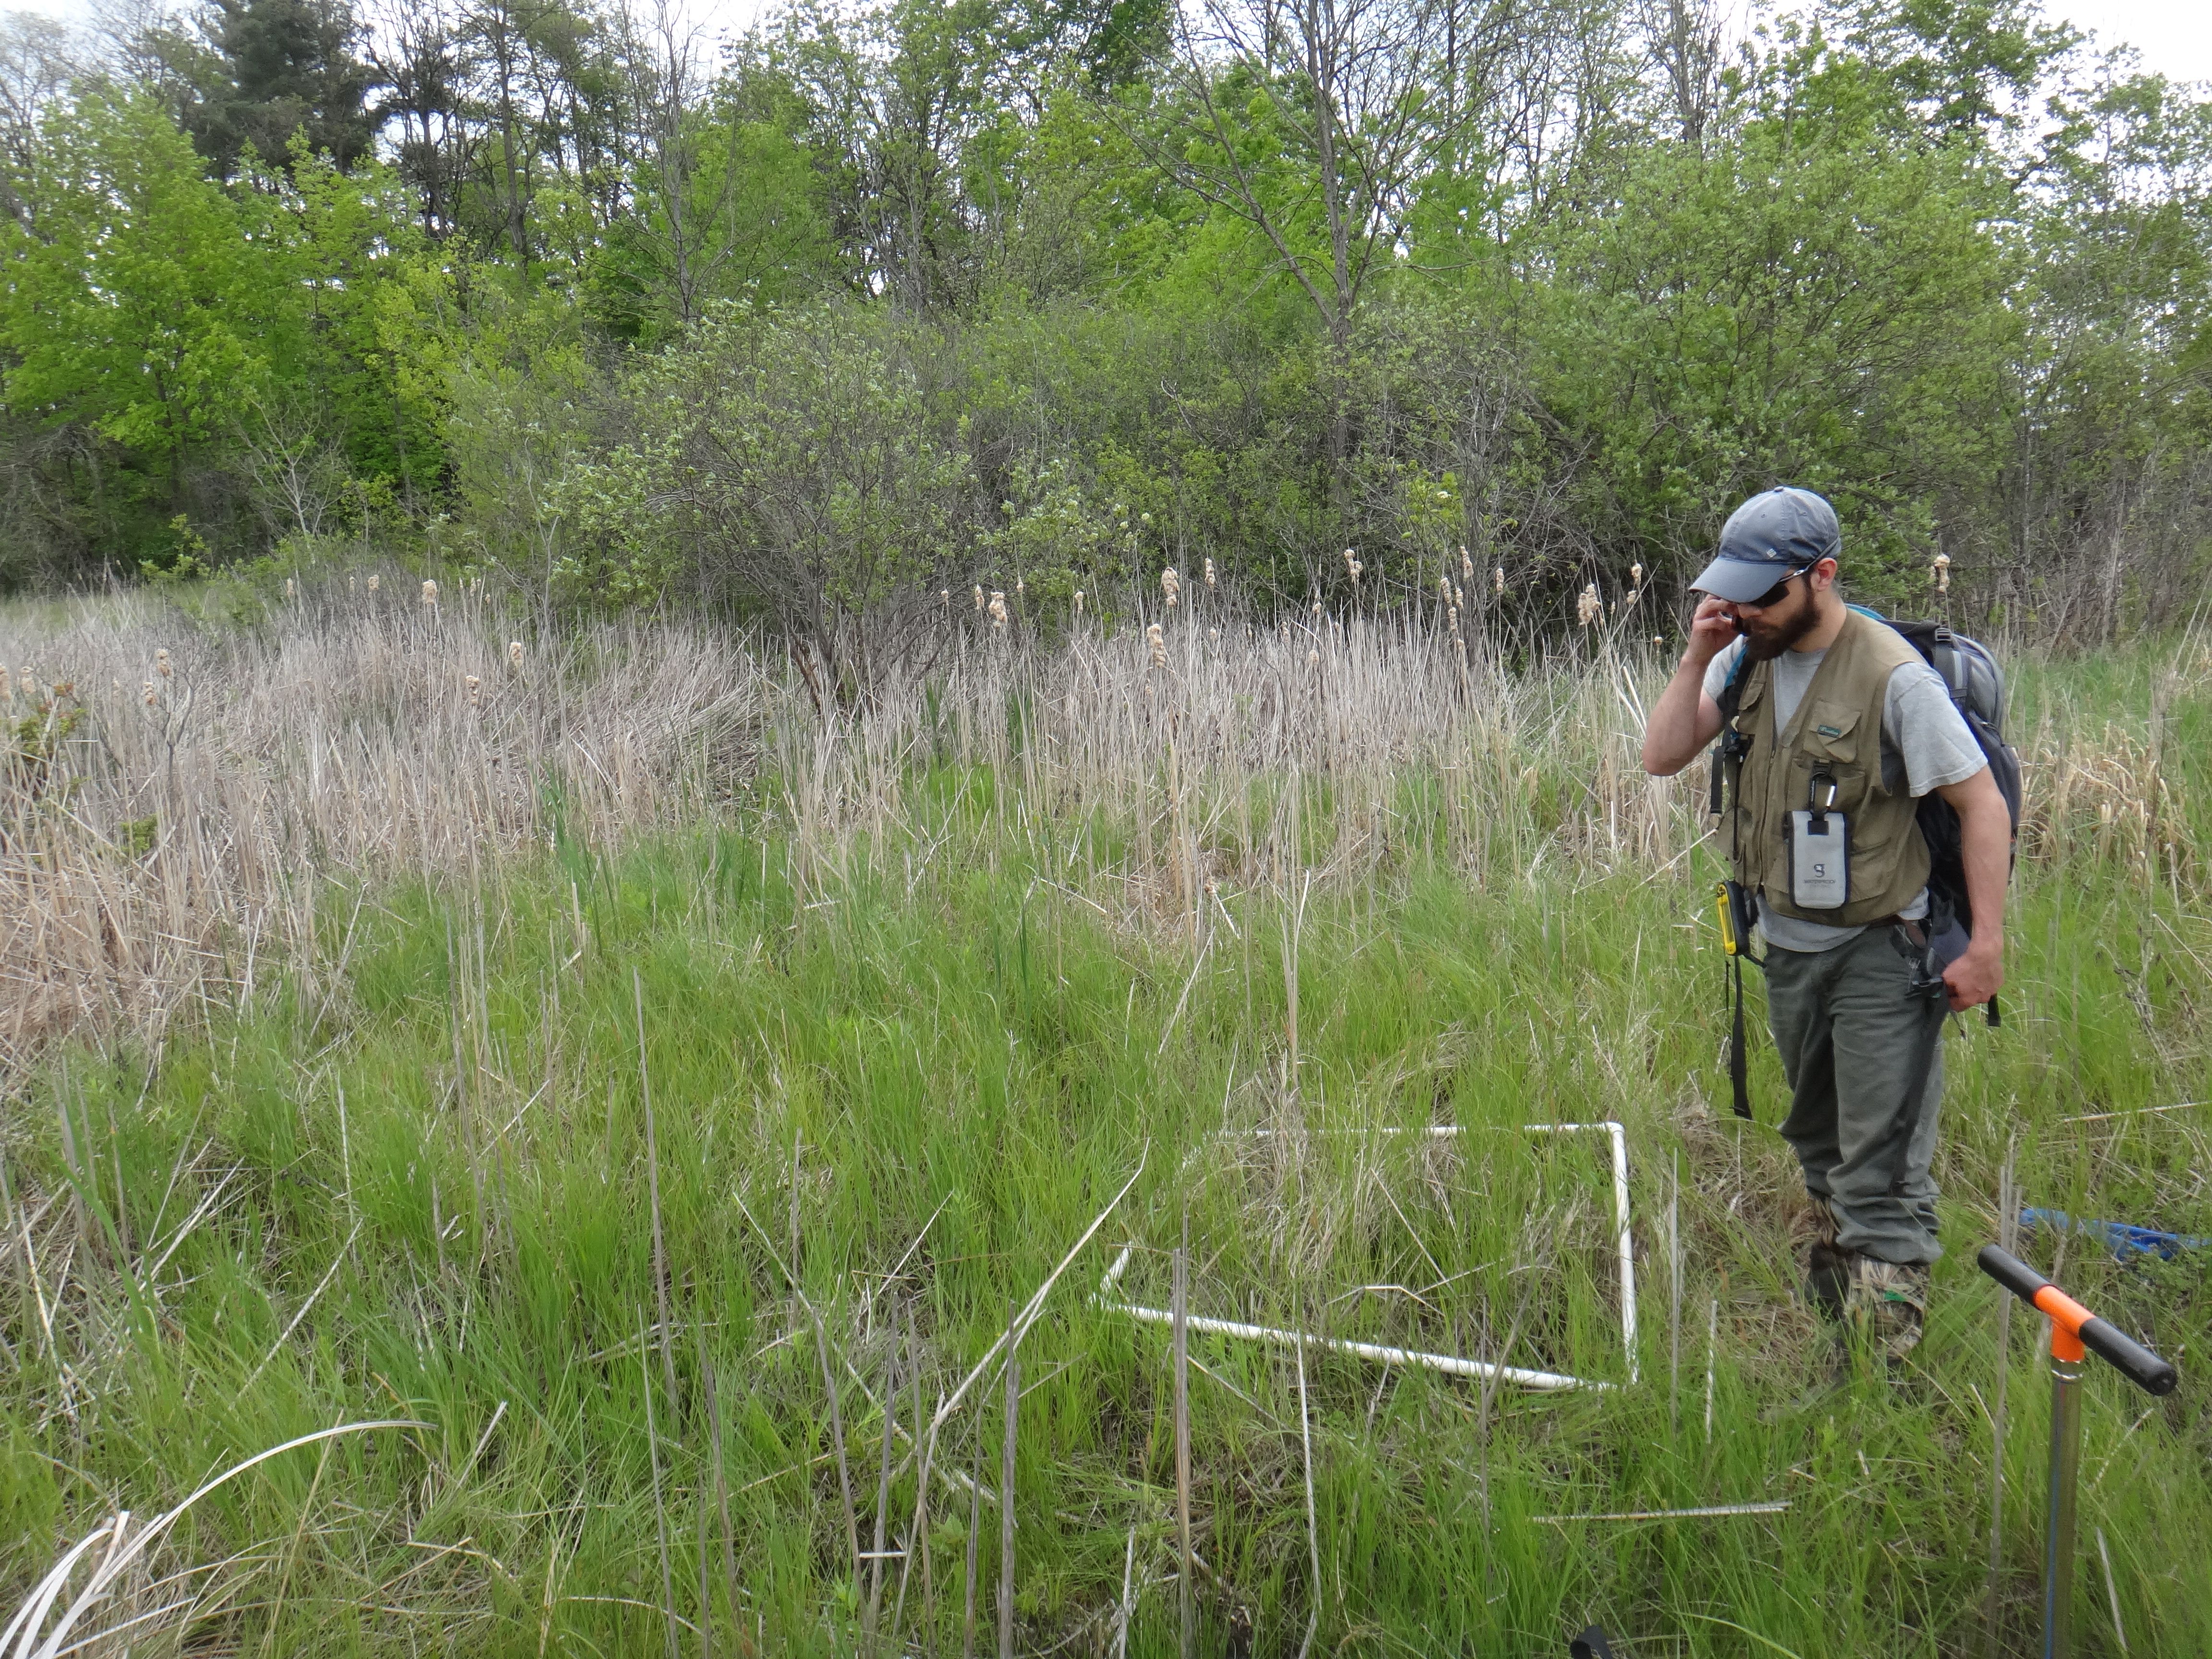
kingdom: Plantae
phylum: Tracheophyta
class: Liliopsida
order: Poales
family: Cyperaceae
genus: Carex
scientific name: Carex lasiocarpa
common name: Slender sedge
